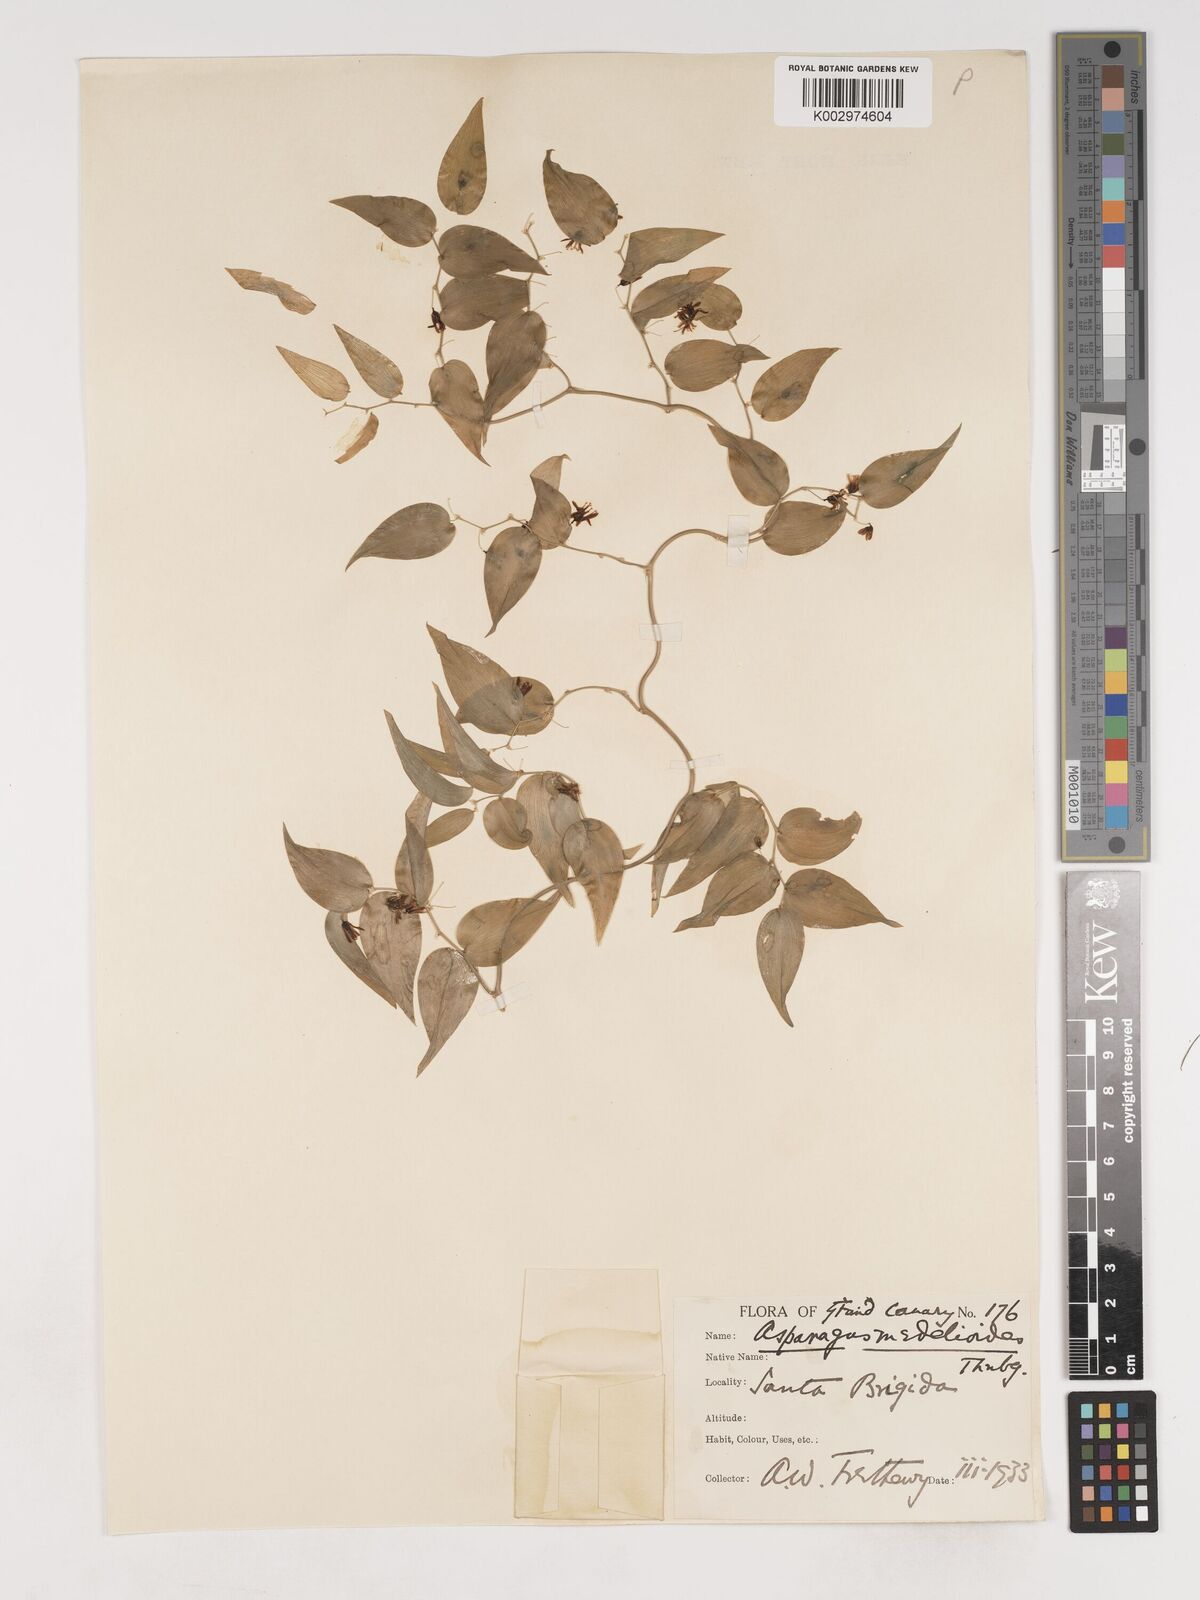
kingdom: Plantae
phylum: Tracheophyta
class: Liliopsida
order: Asparagales
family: Asparagaceae
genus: Asparagus
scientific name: Asparagus asparagoides
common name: African asparagus fern
